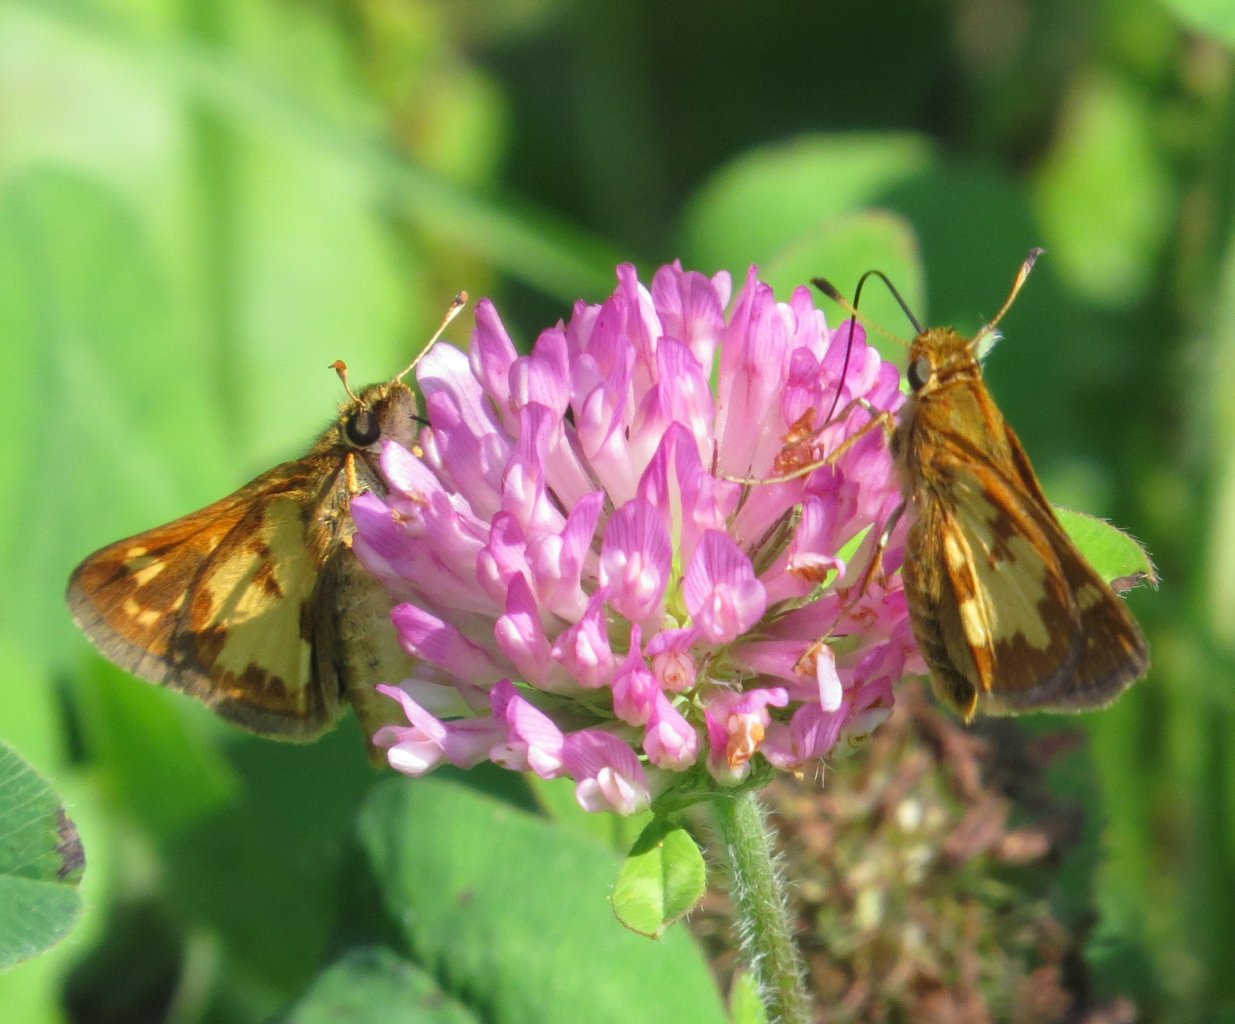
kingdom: Animalia
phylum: Arthropoda
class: Insecta
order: Lepidoptera
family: Hesperiidae
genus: Polites
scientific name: Polites coras
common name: Peck's Skipper
